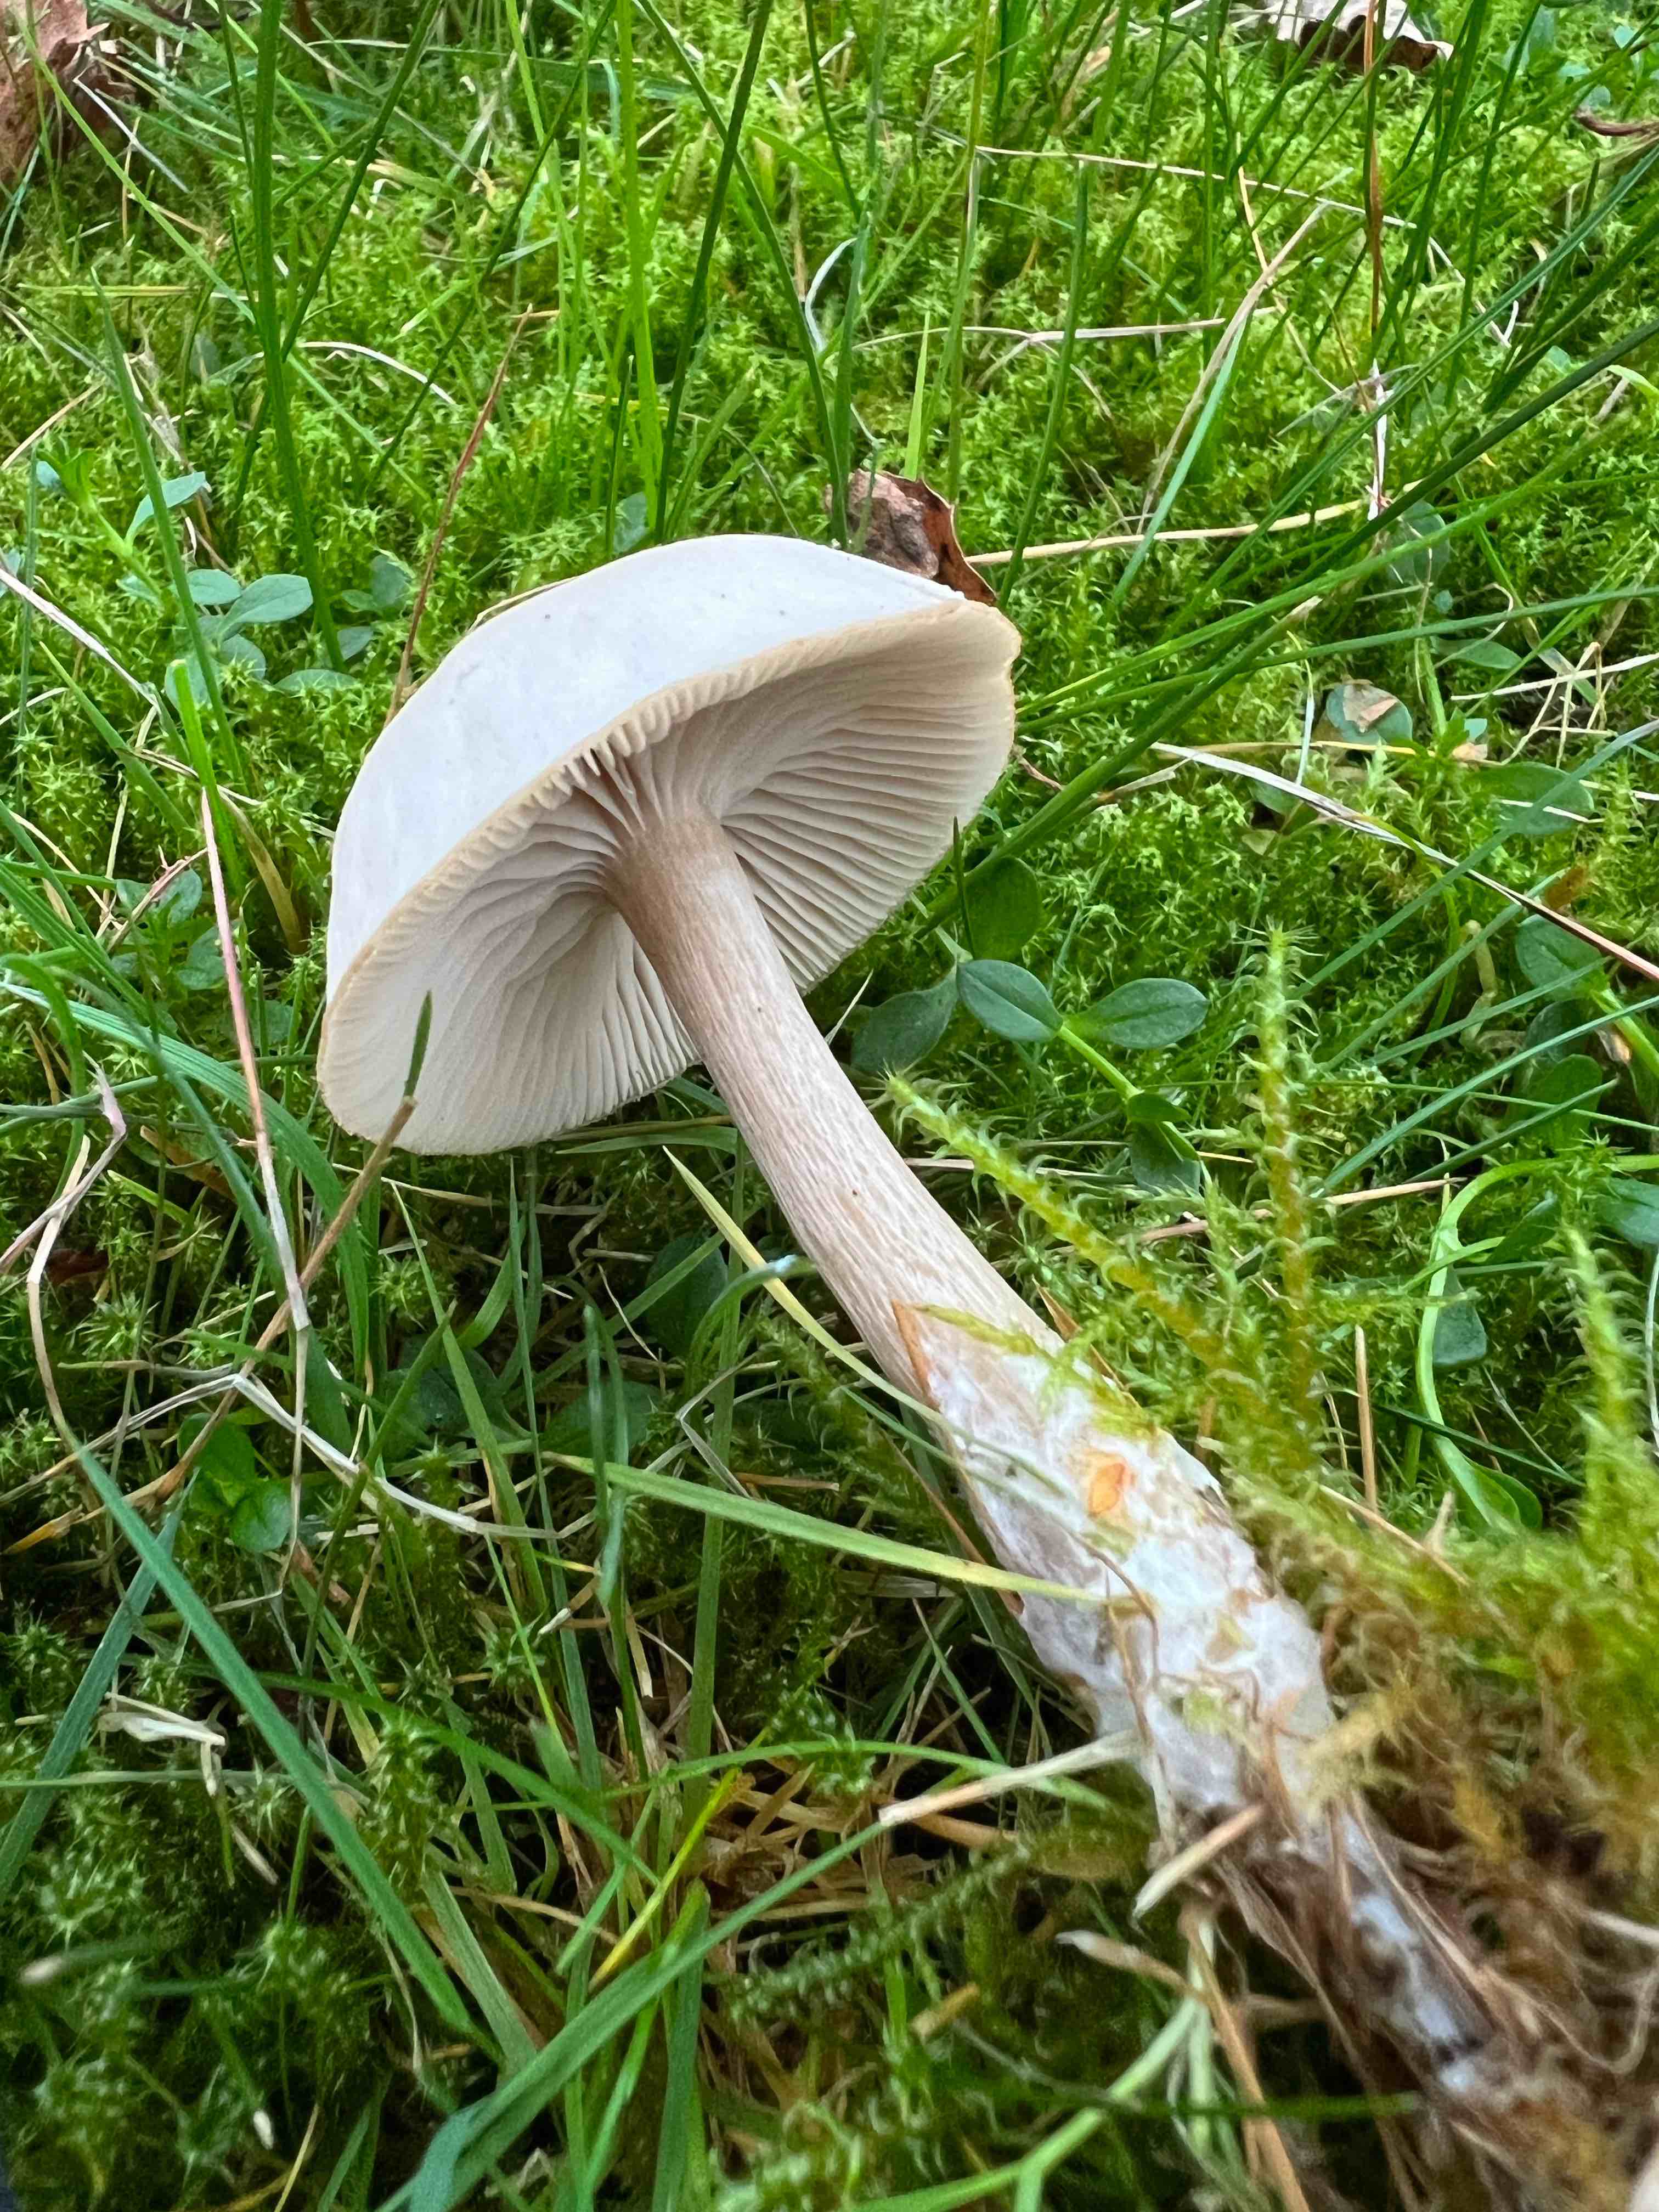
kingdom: Fungi
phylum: Basidiomycota
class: Agaricomycetes
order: Agaricales
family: Tricholomataceae
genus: Clitocybe
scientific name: Clitocybe
